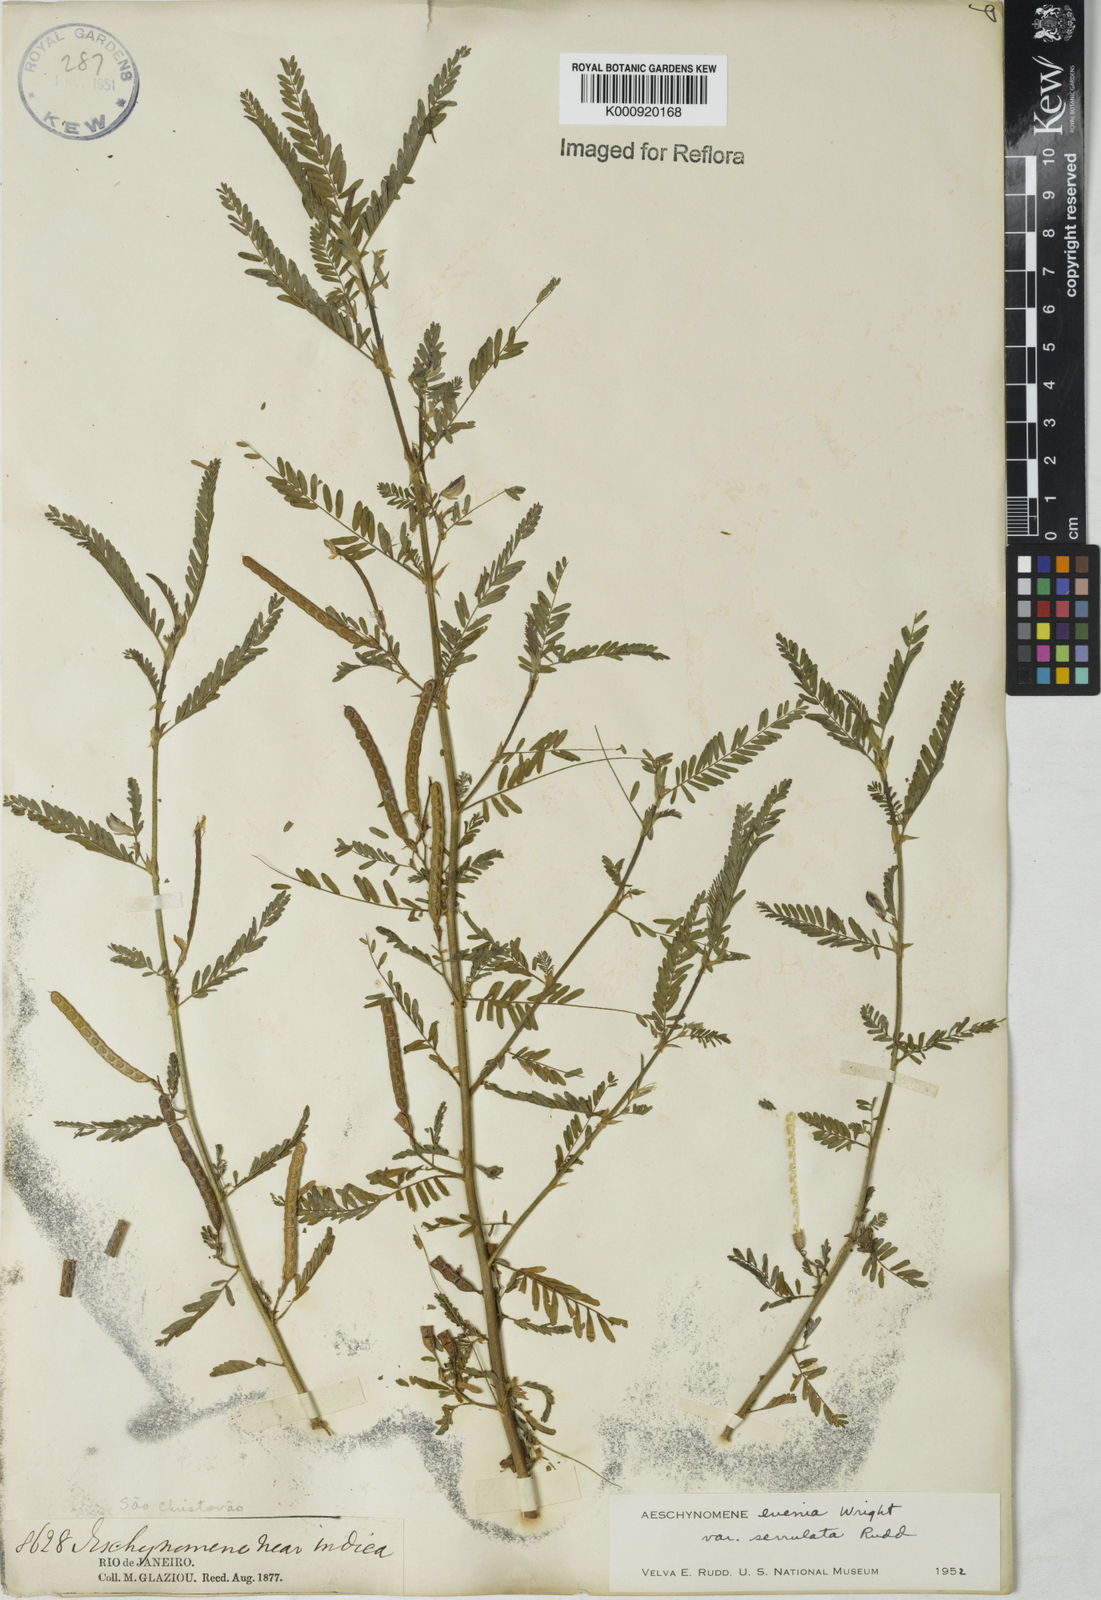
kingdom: Plantae
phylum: Tracheophyta
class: Magnoliopsida
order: Fabales
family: Fabaceae
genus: Aeschynomene
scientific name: Aeschynomene evenia
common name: Shrubby jointvetch
